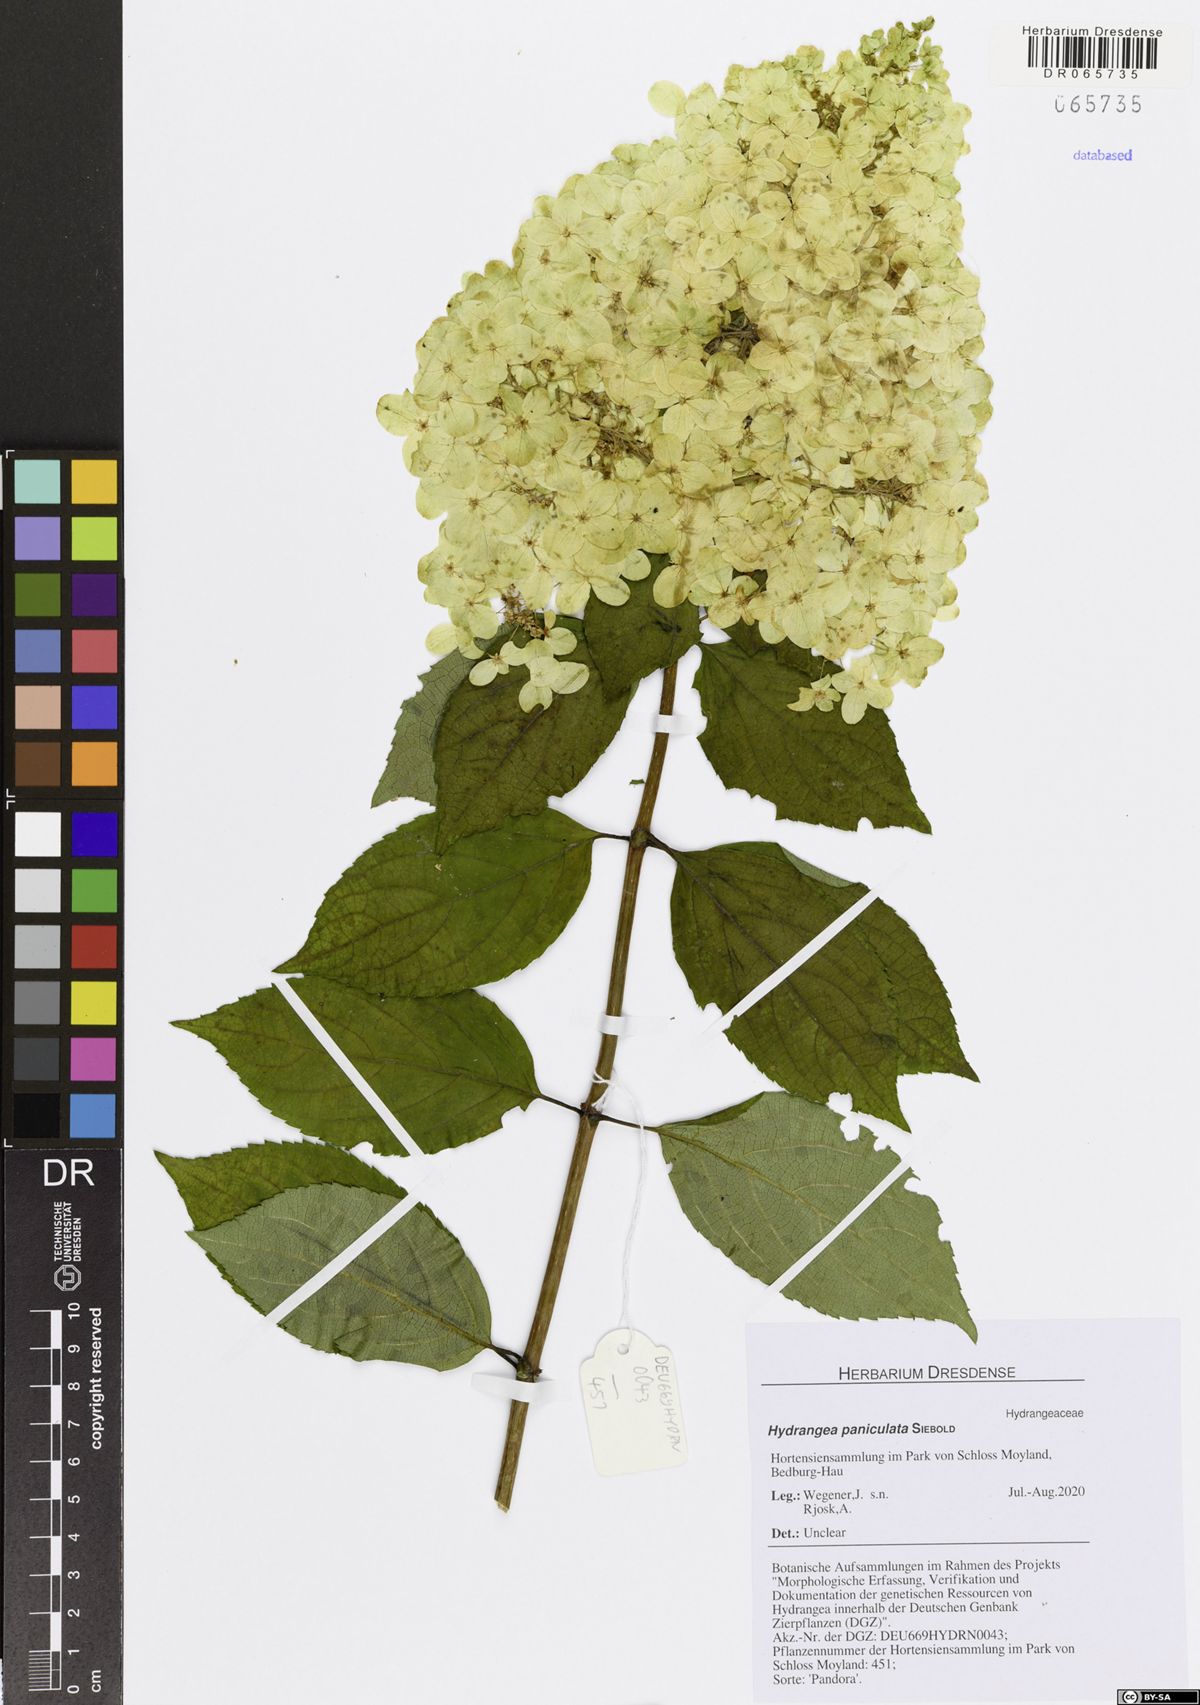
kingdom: Plantae
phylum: Tracheophyta
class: Magnoliopsida
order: Cornales
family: Hydrangeaceae
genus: Hydrangea
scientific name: Hydrangea paniculata
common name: Panicled hydrangea
